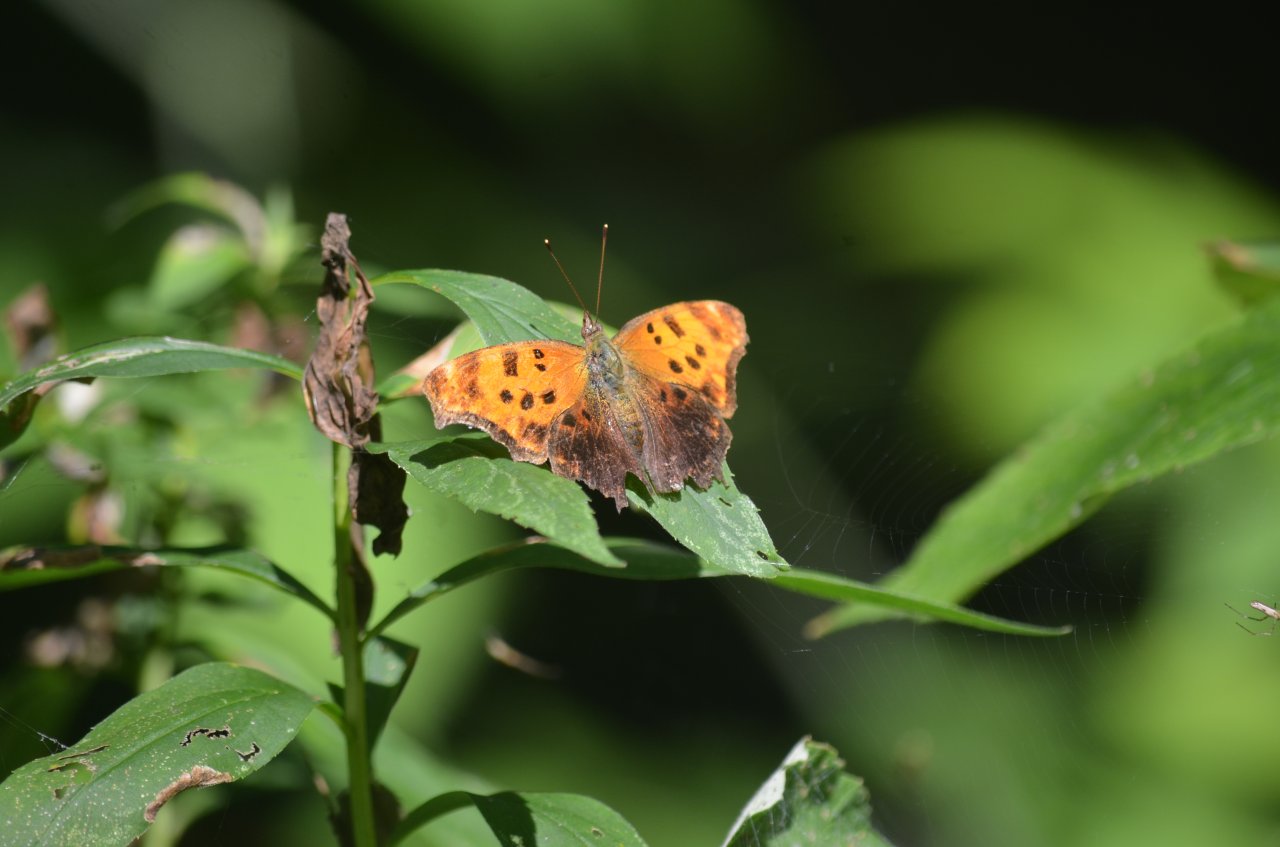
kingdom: Animalia
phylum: Arthropoda
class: Insecta
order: Lepidoptera
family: Nymphalidae
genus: Polygonia
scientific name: Polygonia comma
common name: Eastern Comma
